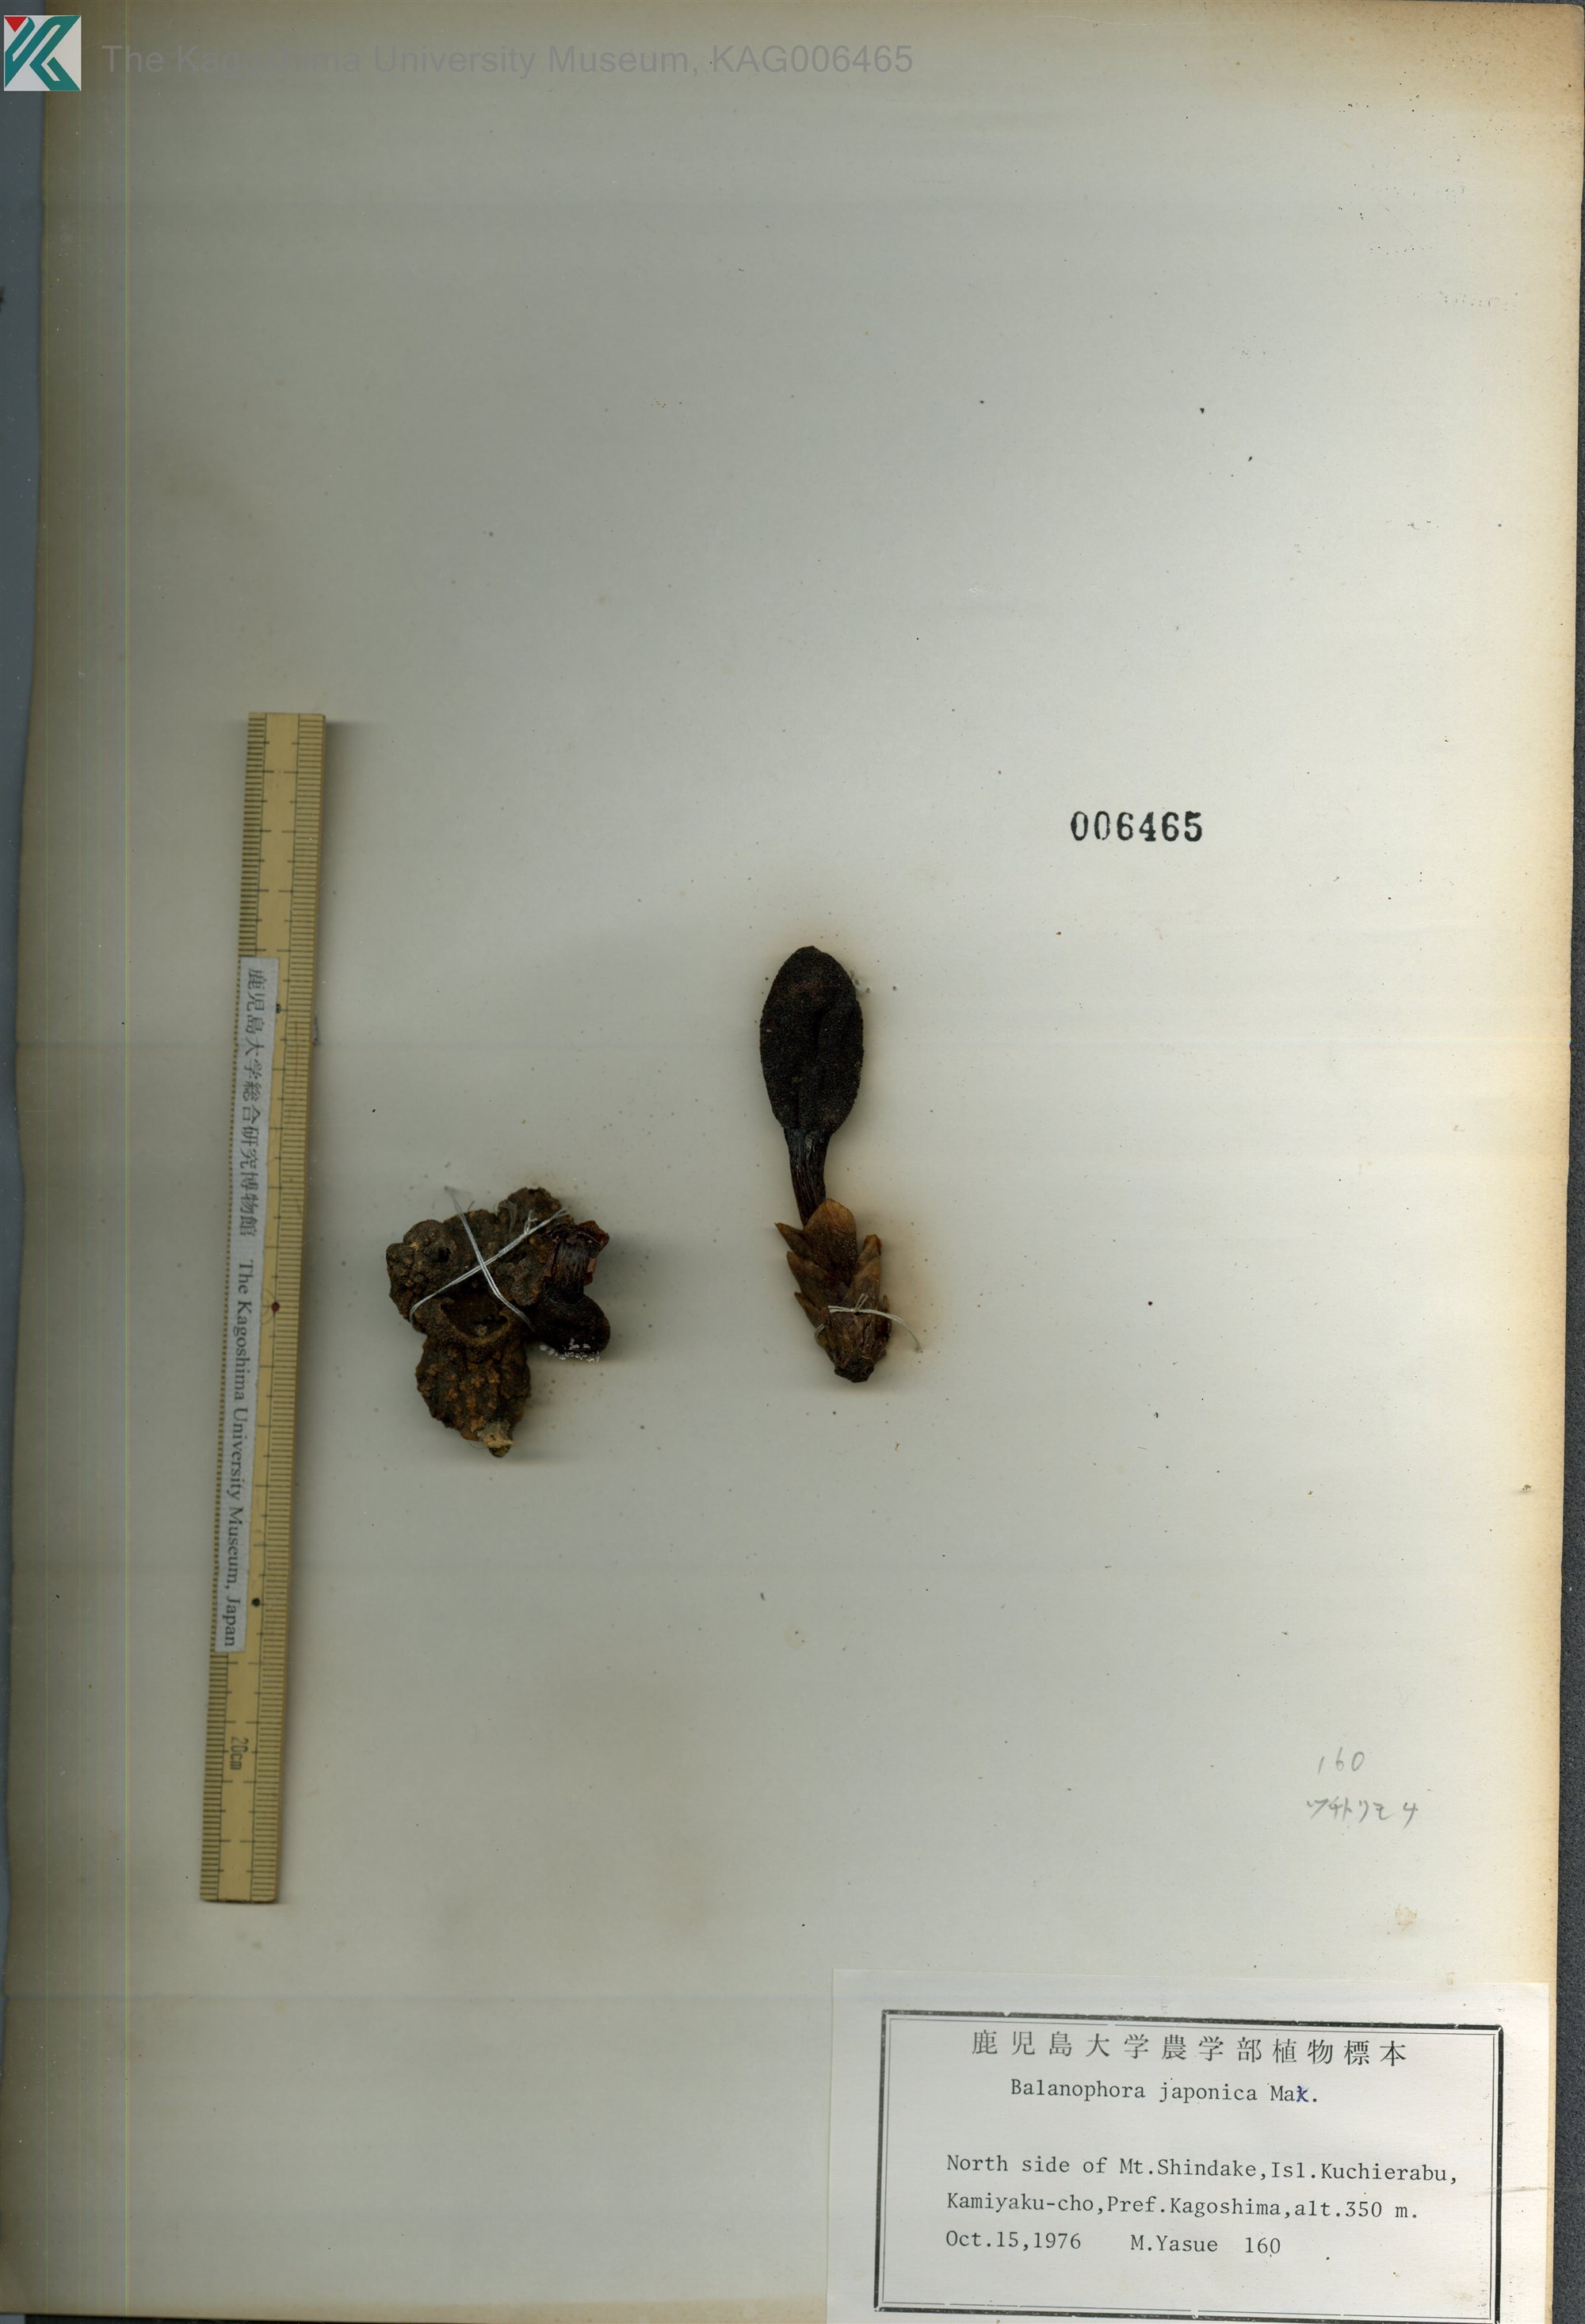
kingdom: Plantae
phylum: Tracheophyta
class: Magnoliopsida
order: Santalales
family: Balanophoraceae
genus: Balanophora
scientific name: Balanophora japonica
